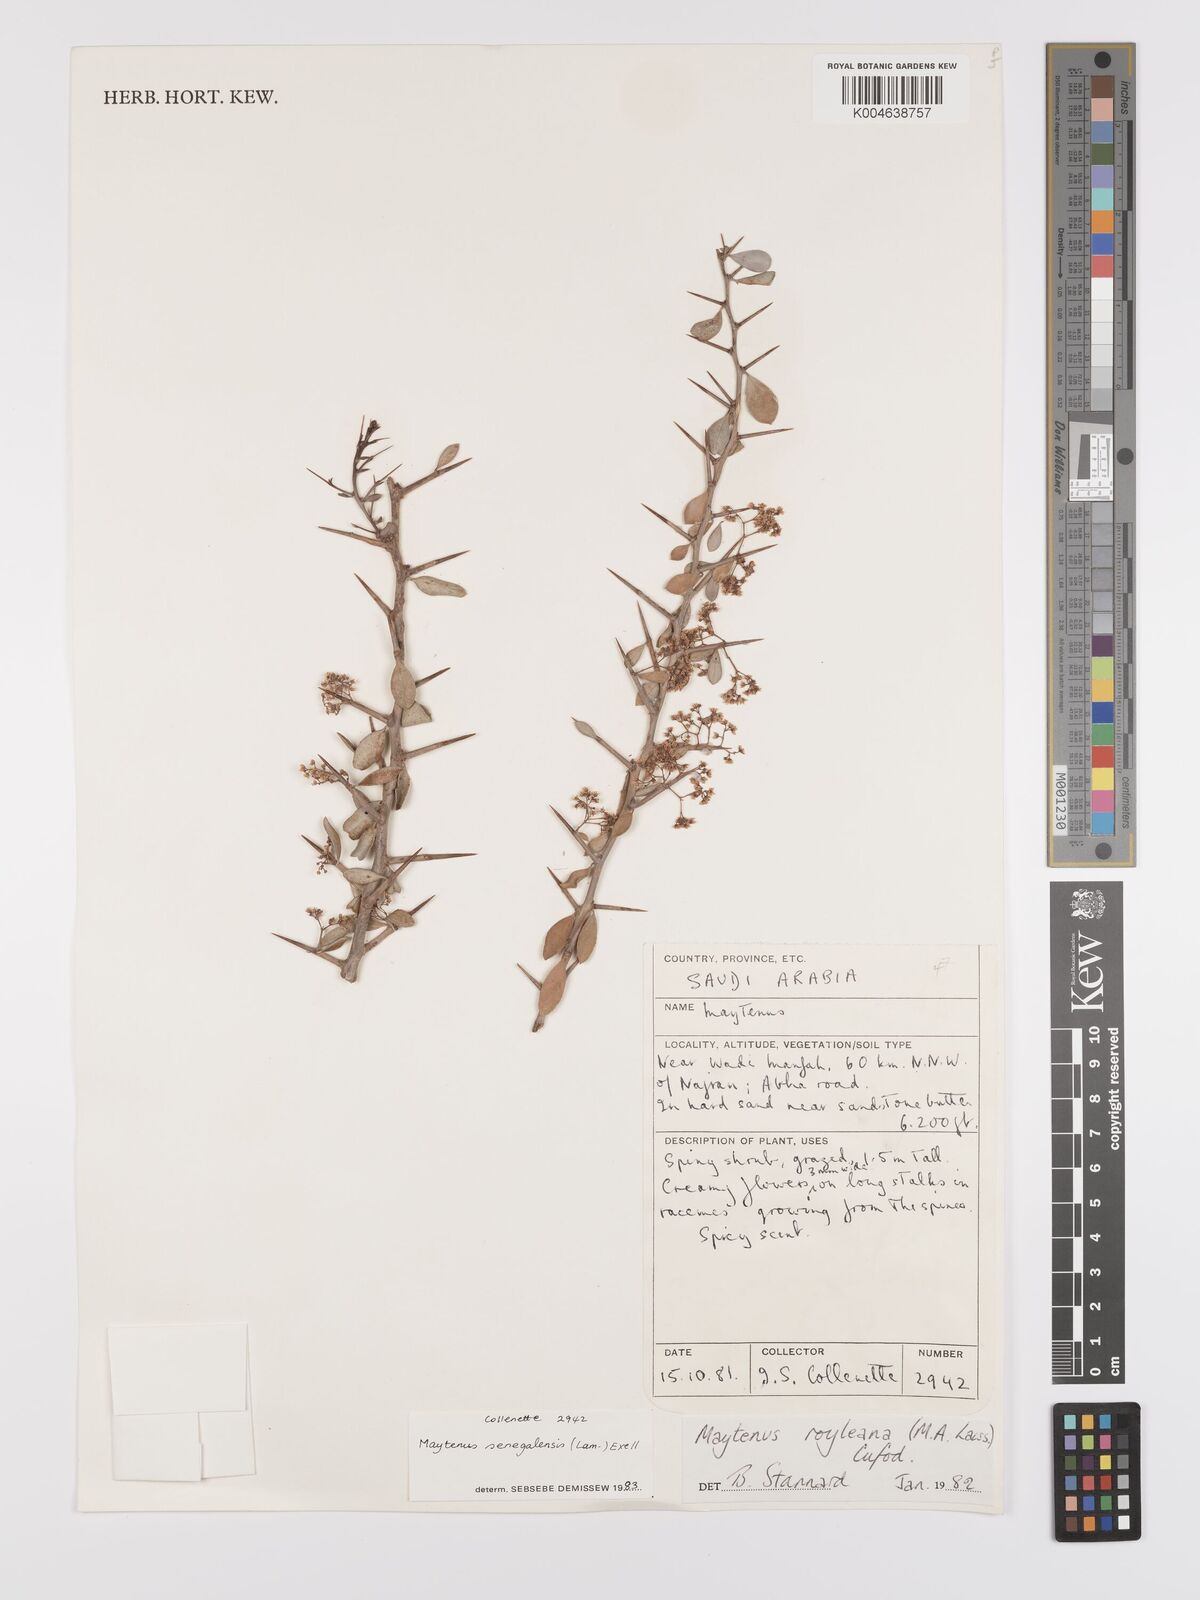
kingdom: Plantae
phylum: Tracheophyta
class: Magnoliopsida
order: Celastrales
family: Celastraceae
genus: Gymnosporia
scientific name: Gymnosporia senegalensis
